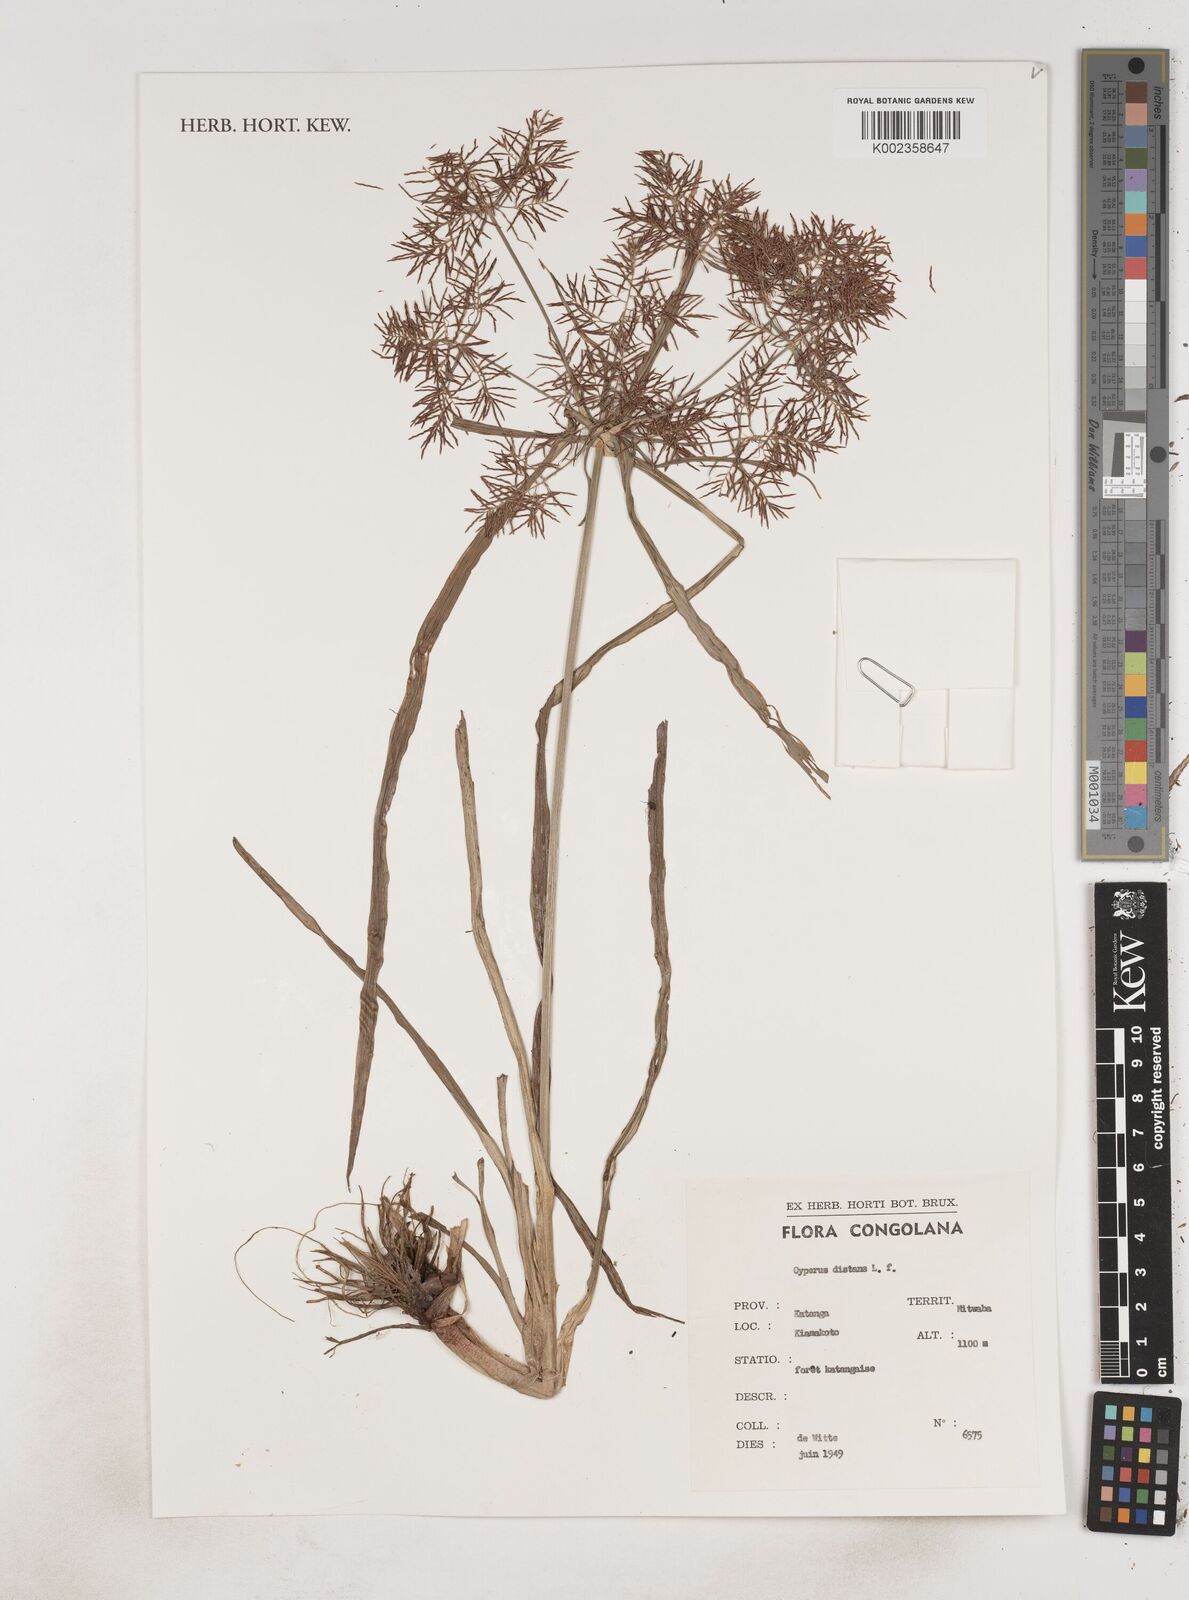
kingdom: Plantae
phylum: Tracheophyta
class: Liliopsida
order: Poales
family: Cyperaceae
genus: Cyperus
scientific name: Cyperus distans
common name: Slender cyperus
